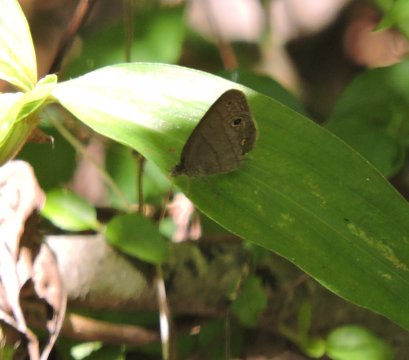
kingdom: Animalia
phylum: Arthropoda
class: Insecta
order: Lepidoptera
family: Nymphalidae
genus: Hermeuptychia
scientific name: Hermeuptychia hermes
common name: Carolina Satyr
